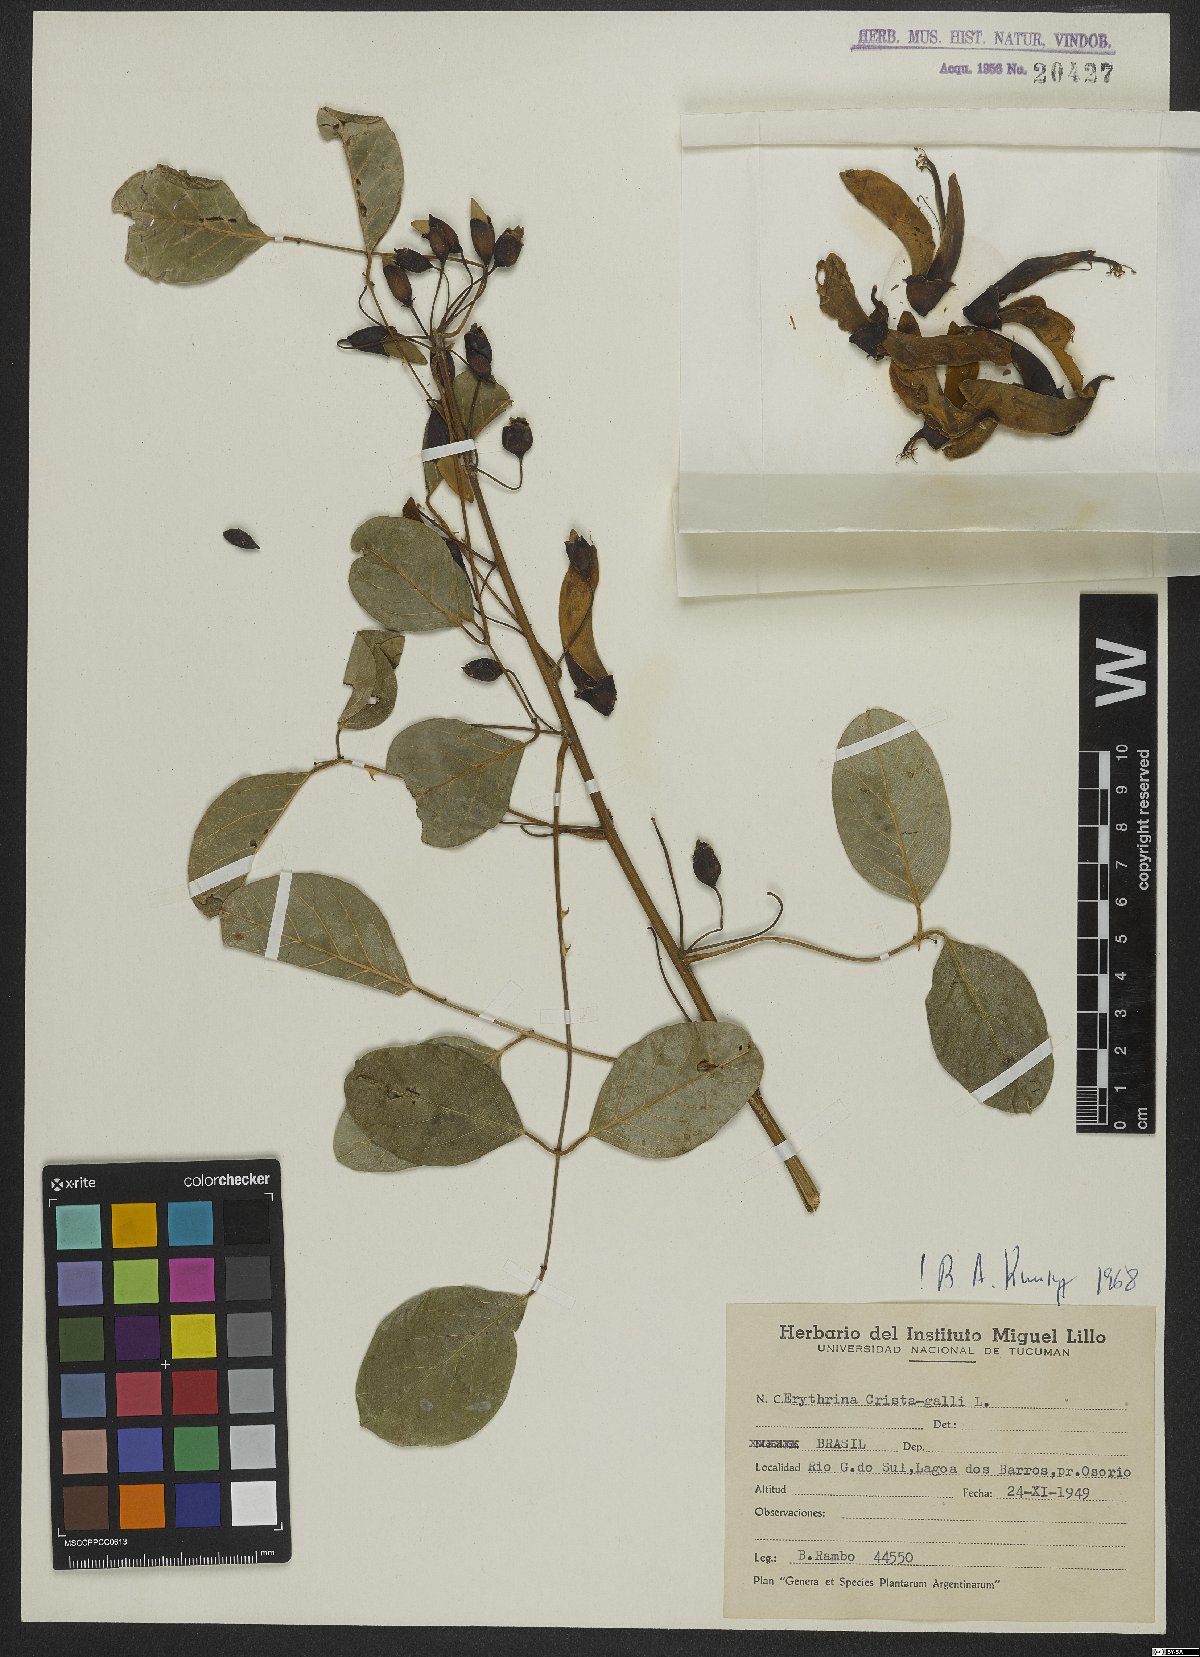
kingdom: Plantae
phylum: Tracheophyta
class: Magnoliopsida
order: Fabales
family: Fabaceae
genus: Erythrina
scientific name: Erythrina crista-galli
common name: Cockspur coral tree
